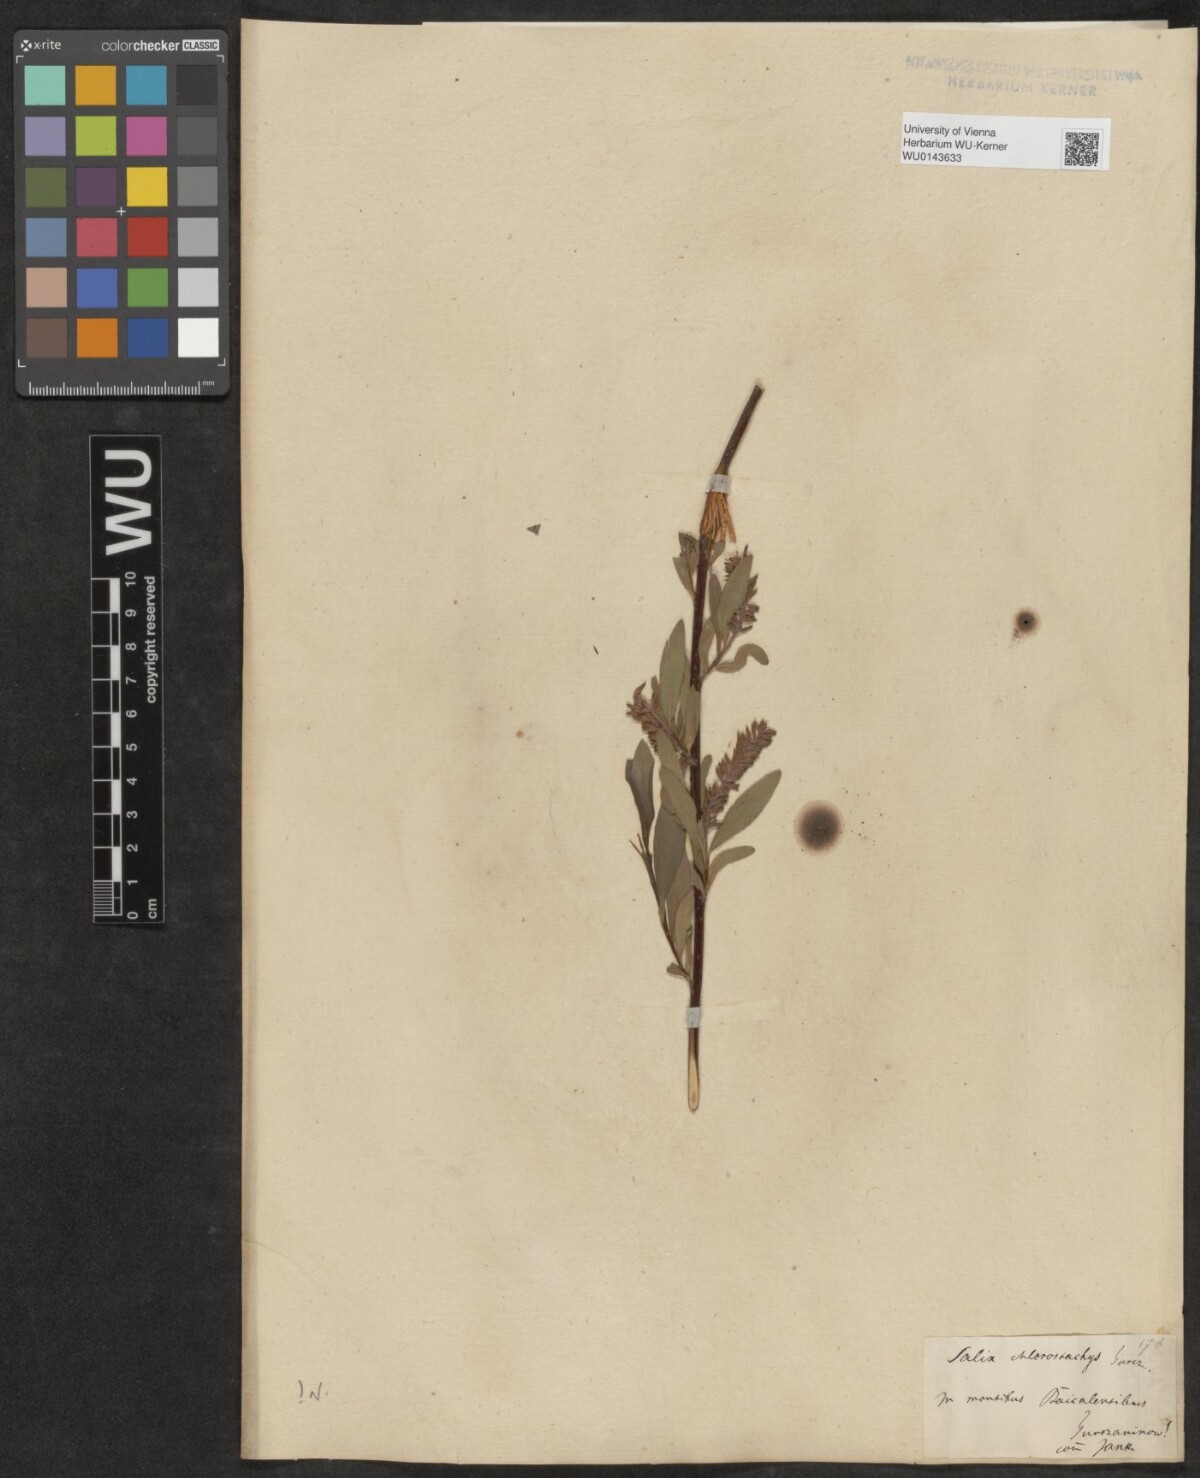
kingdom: Plantae
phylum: Tracheophyta
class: Magnoliopsida
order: Malpighiales
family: Salicaceae
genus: Salix
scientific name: Salix
